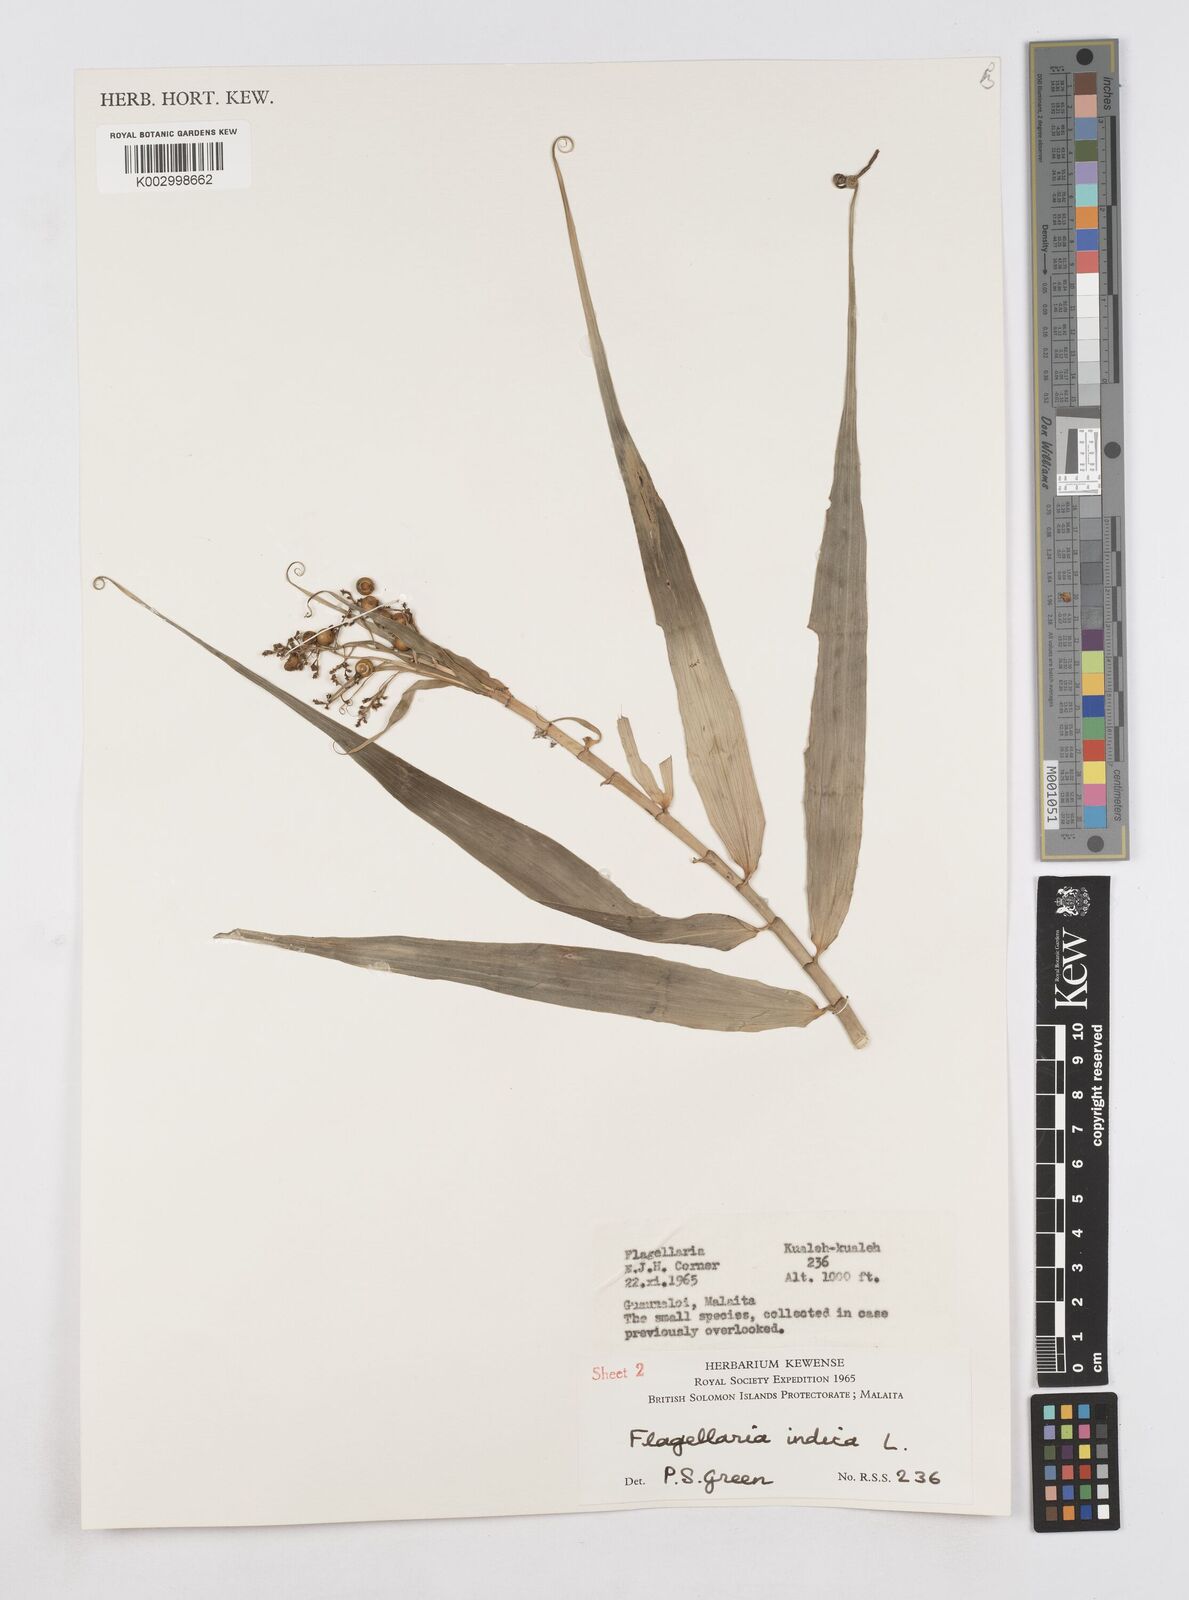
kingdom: Plantae
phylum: Tracheophyta
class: Liliopsida
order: Poales
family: Flagellariaceae
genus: Flagellaria
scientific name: Flagellaria indica
